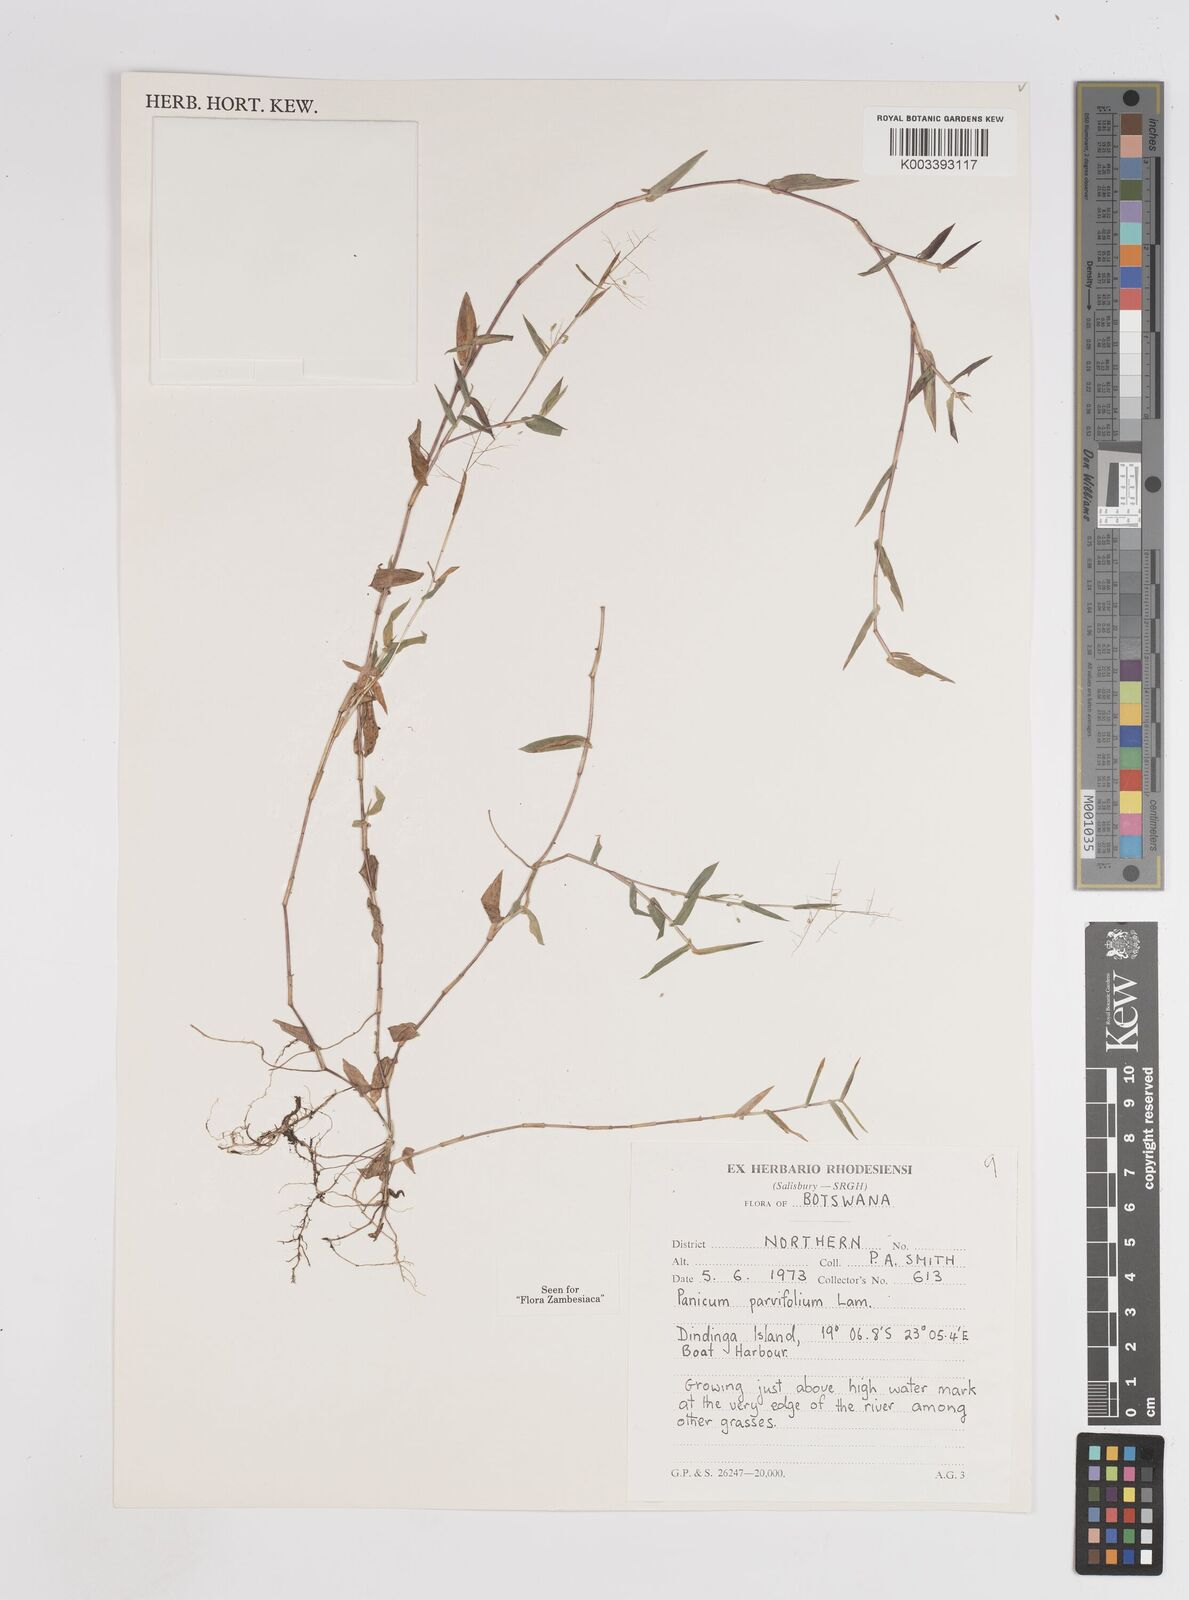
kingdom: Plantae
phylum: Tracheophyta
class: Liliopsida
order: Poales
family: Poaceae
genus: Trichanthecium
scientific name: Trichanthecium parvifolium
